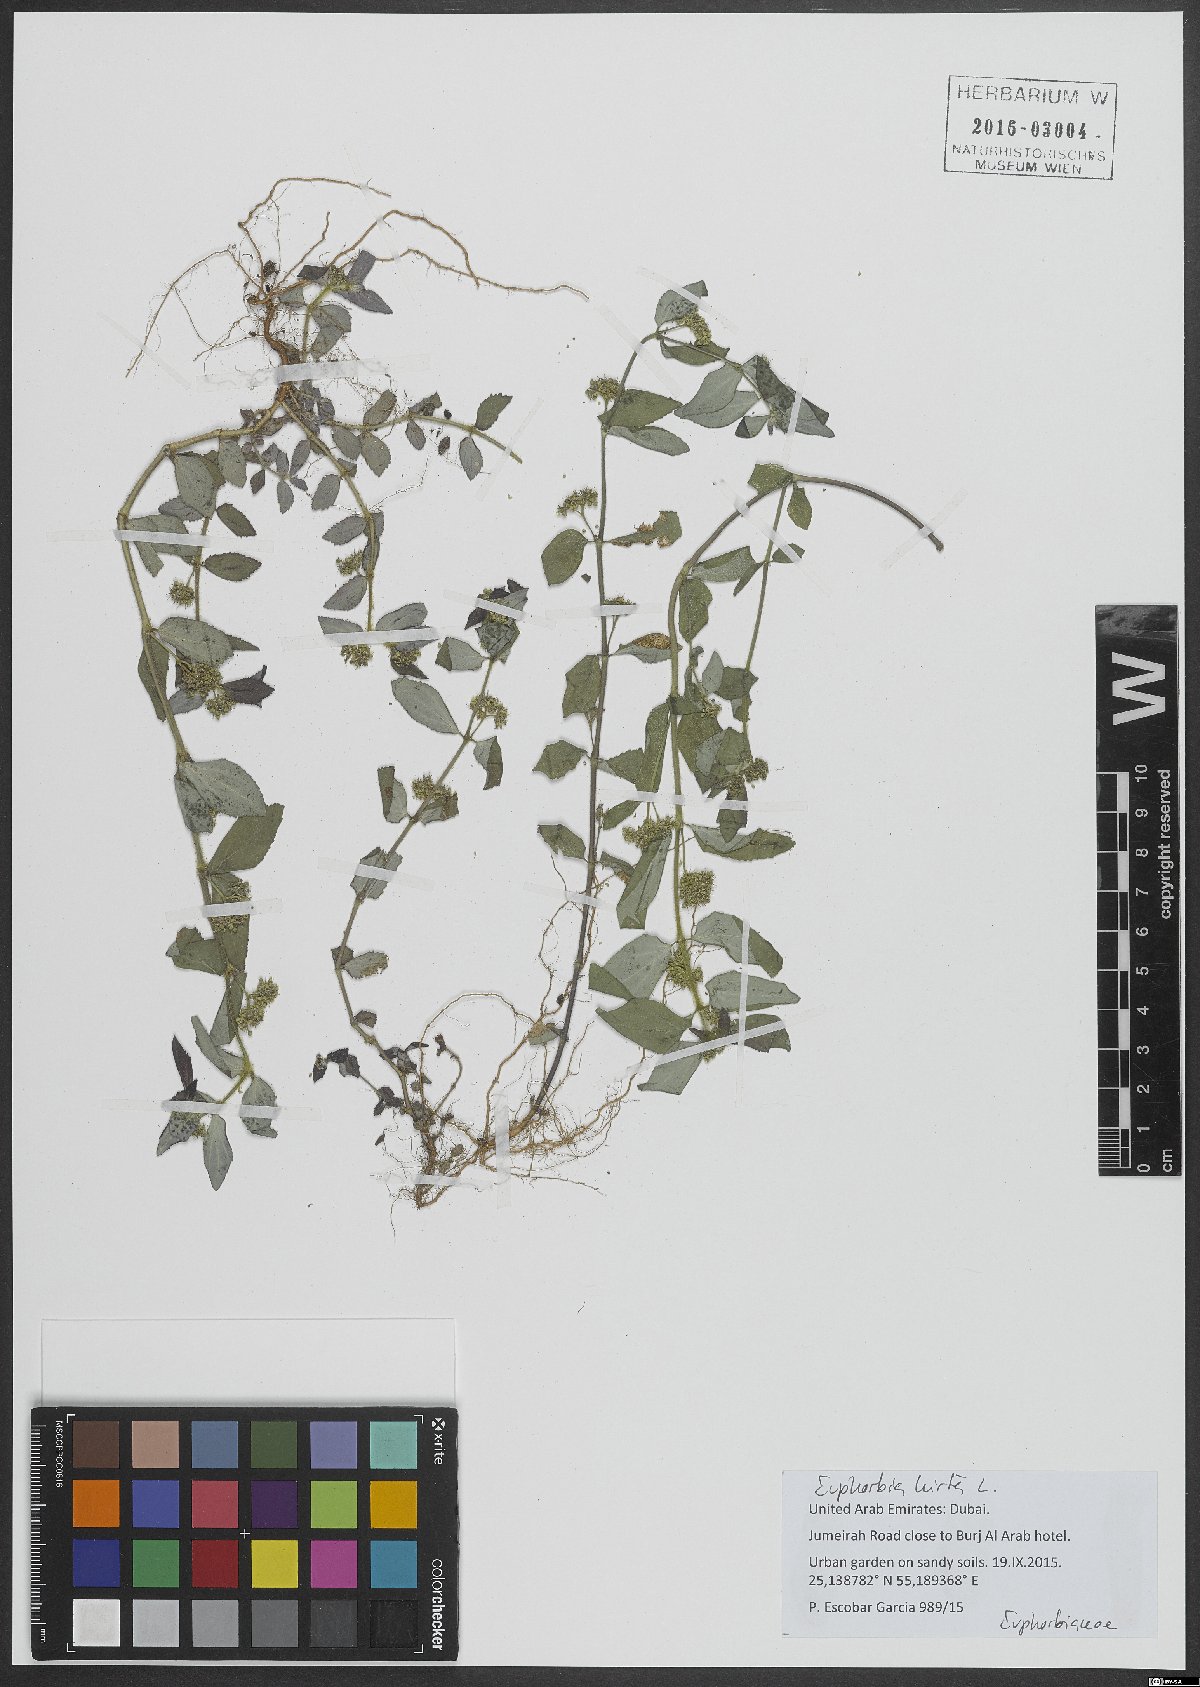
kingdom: Plantae
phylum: Tracheophyta
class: Magnoliopsida
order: Malpighiales
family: Euphorbiaceae
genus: Euphorbia
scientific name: Euphorbia hirta
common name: Pillpod sandmat
